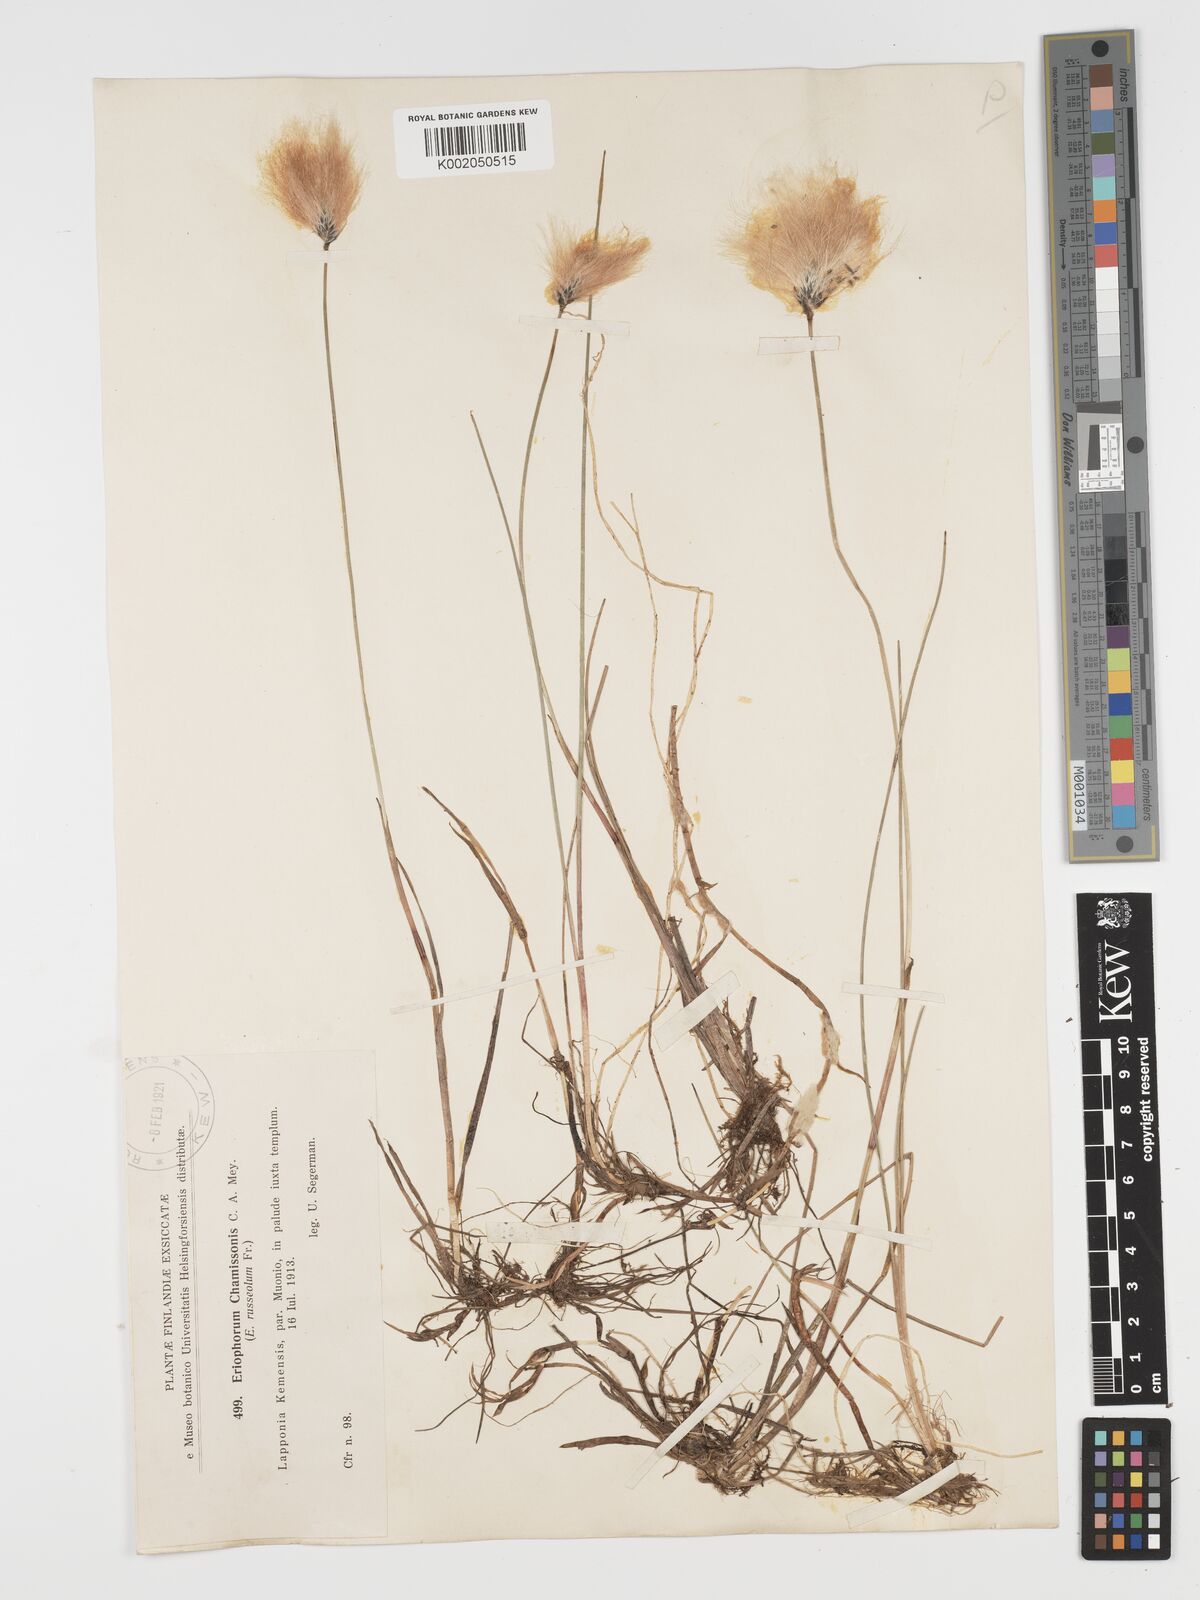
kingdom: Plantae
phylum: Tracheophyta
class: Liliopsida
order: Poales
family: Cyperaceae
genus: Eriophorum
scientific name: Eriophorum chamissonis
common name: Chamisso's cottongrass
